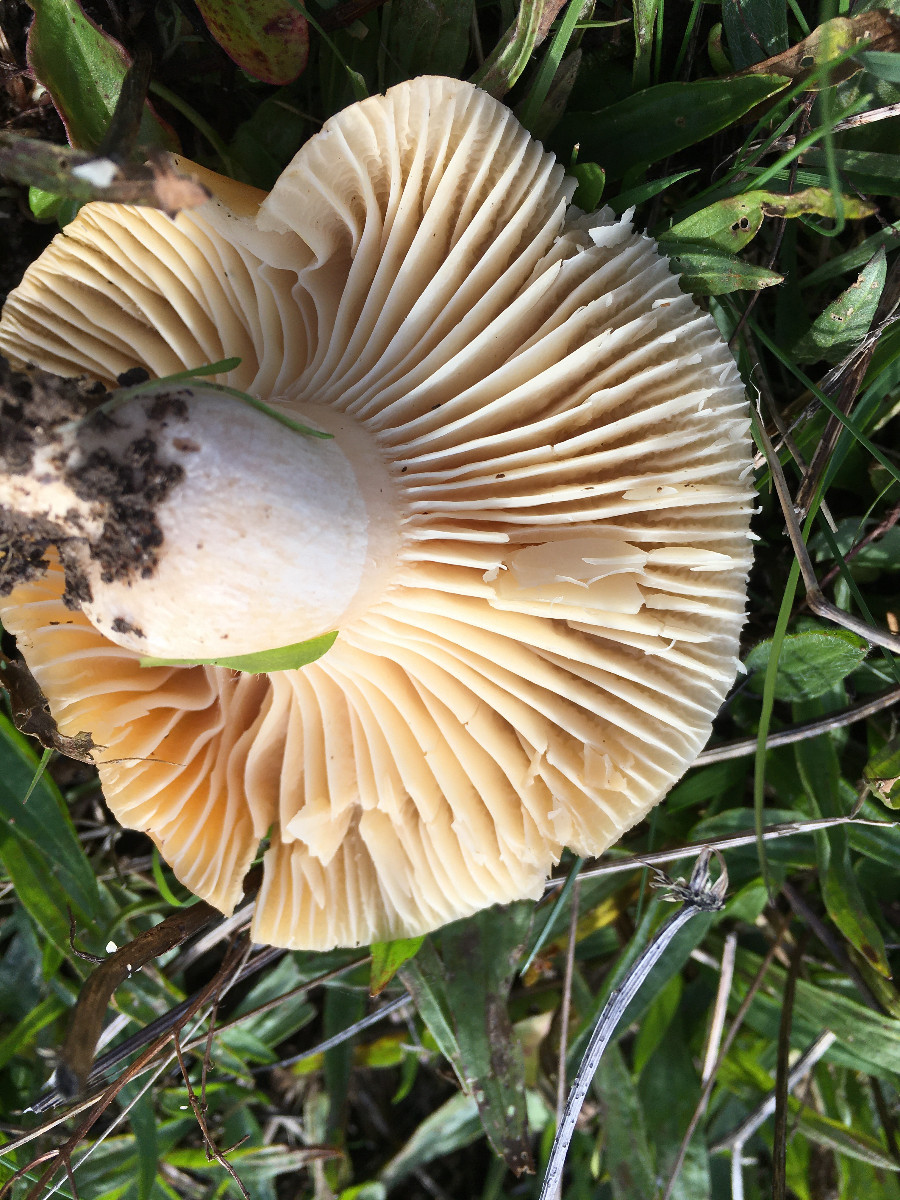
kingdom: Fungi
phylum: Basidiomycota
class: Agaricomycetes
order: Agaricales
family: Hygrophoraceae
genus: Cuphophyllus
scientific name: Cuphophyllus pratensis
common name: eng-vokshat
